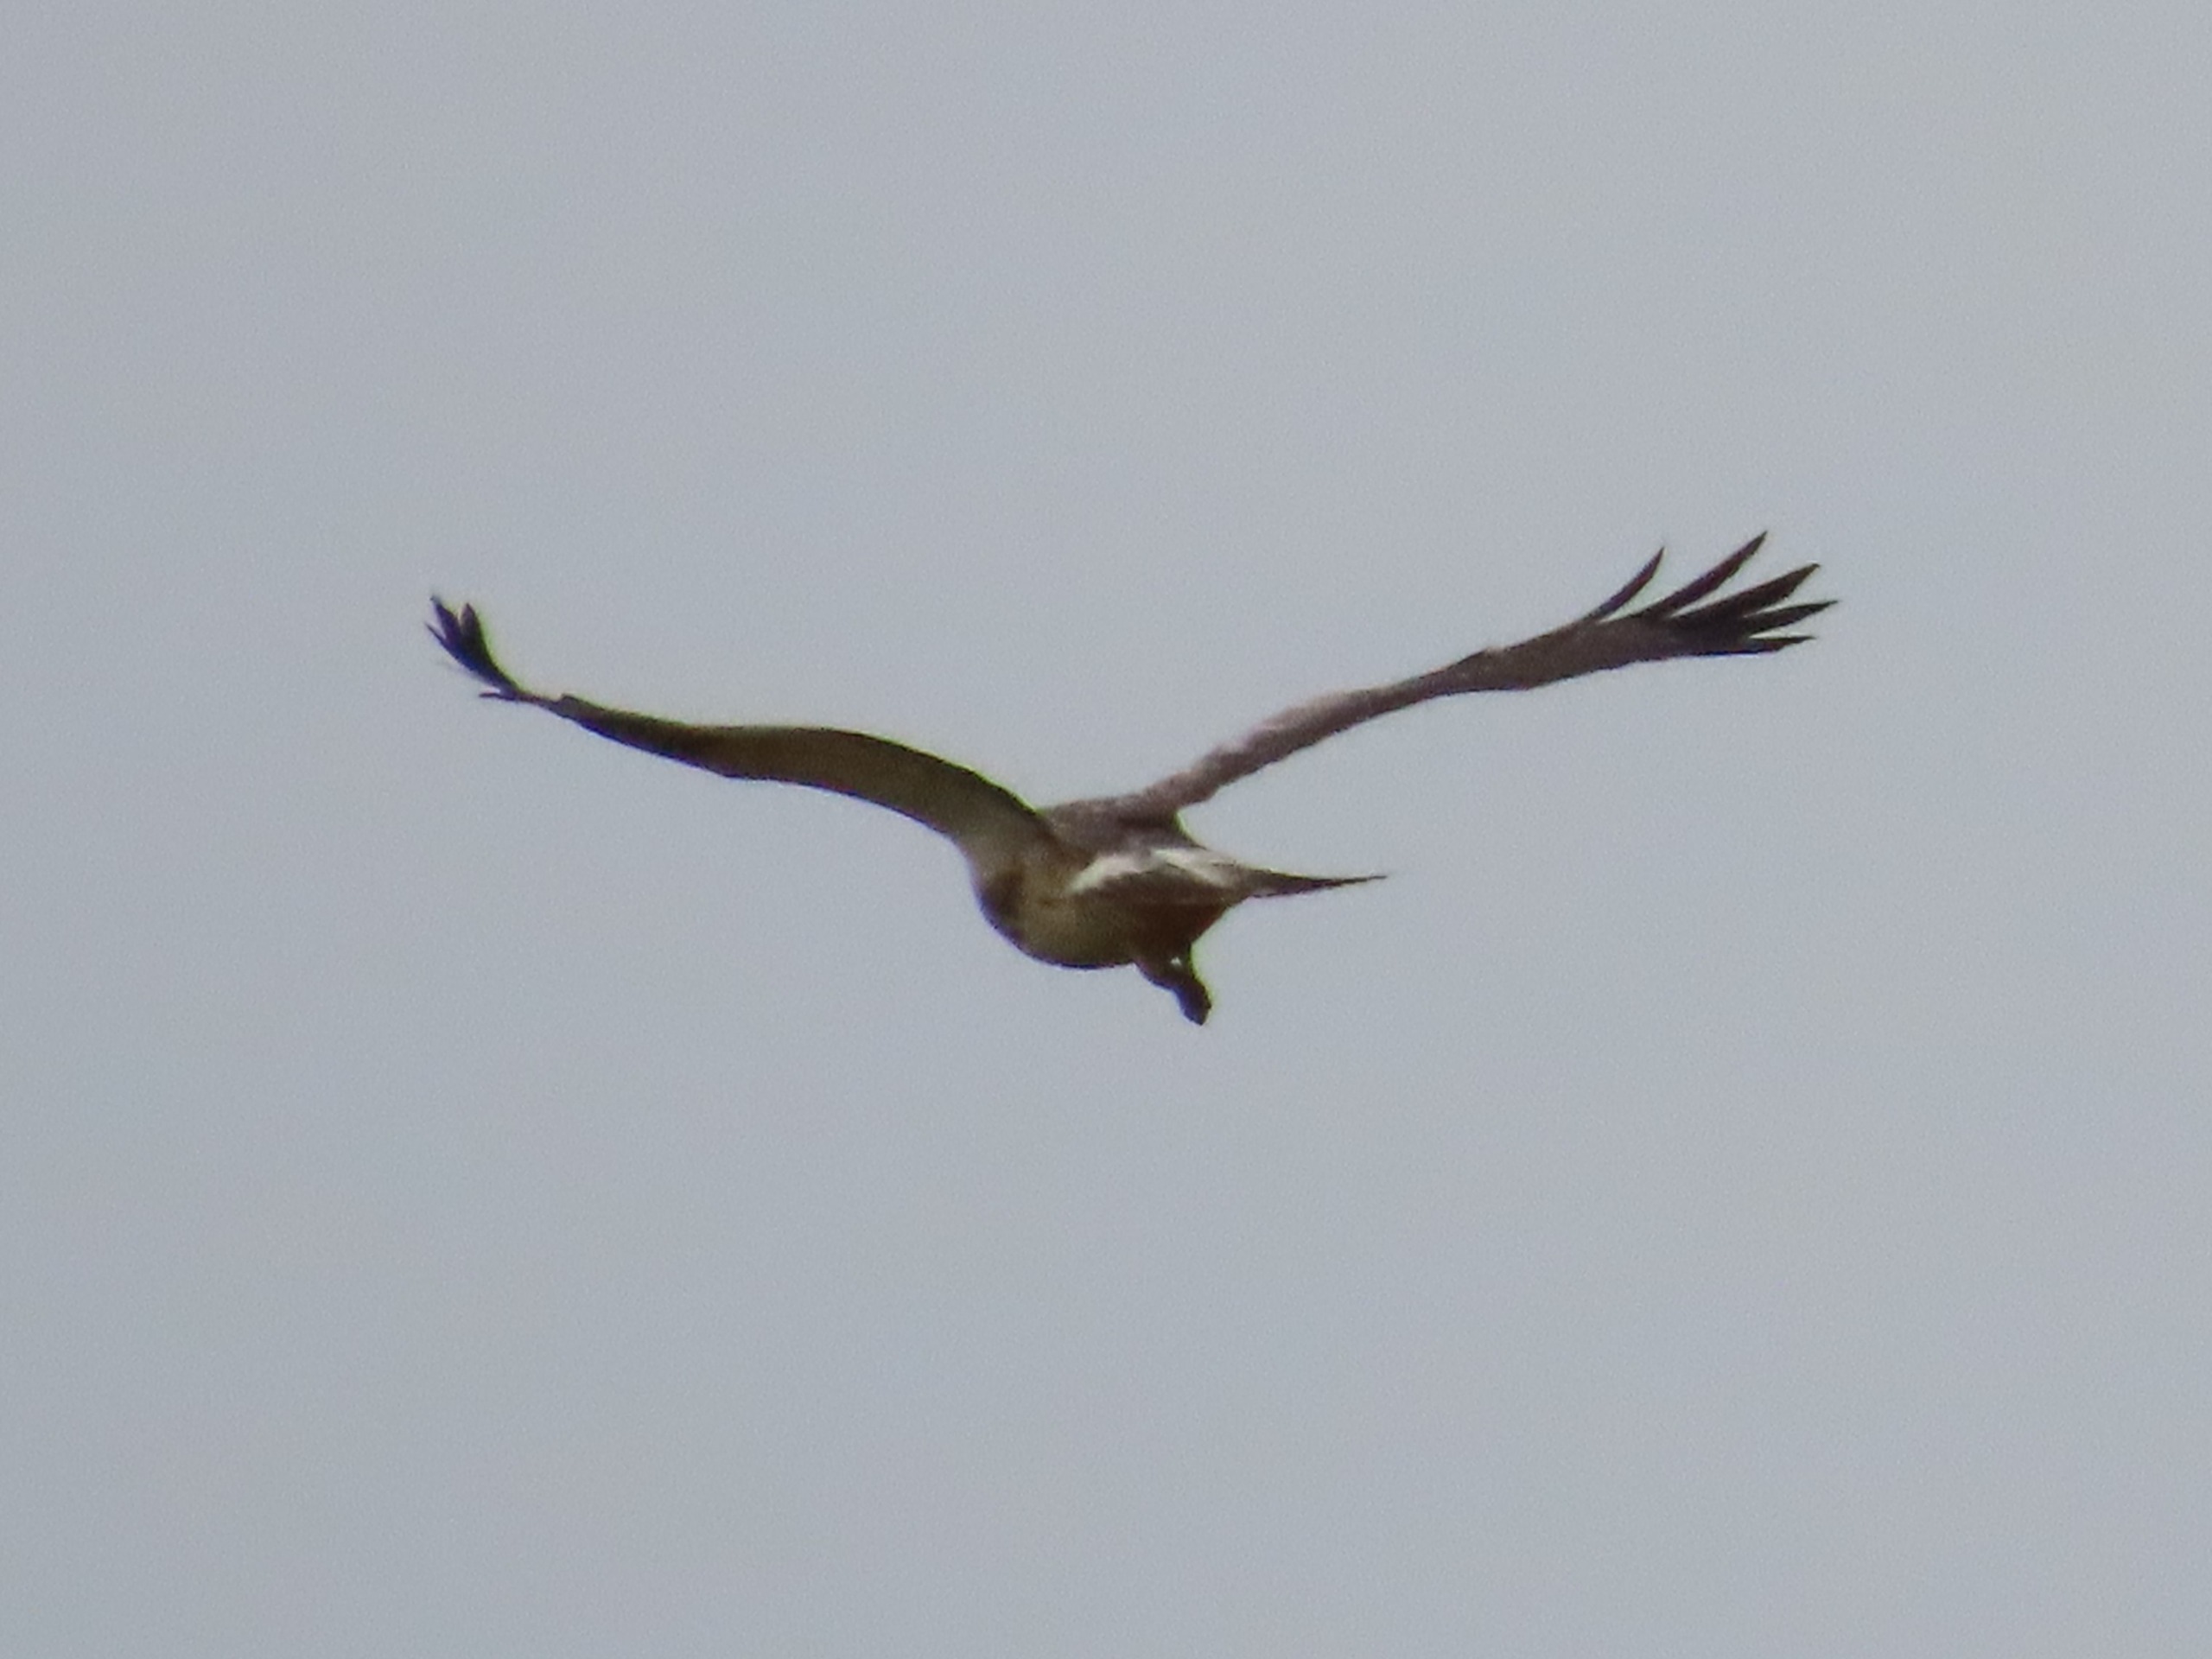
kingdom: Animalia
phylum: Chordata
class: Aves
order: Accipitriformes
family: Accipitridae
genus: Buteo
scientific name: Buteo buteo
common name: Musvåge
